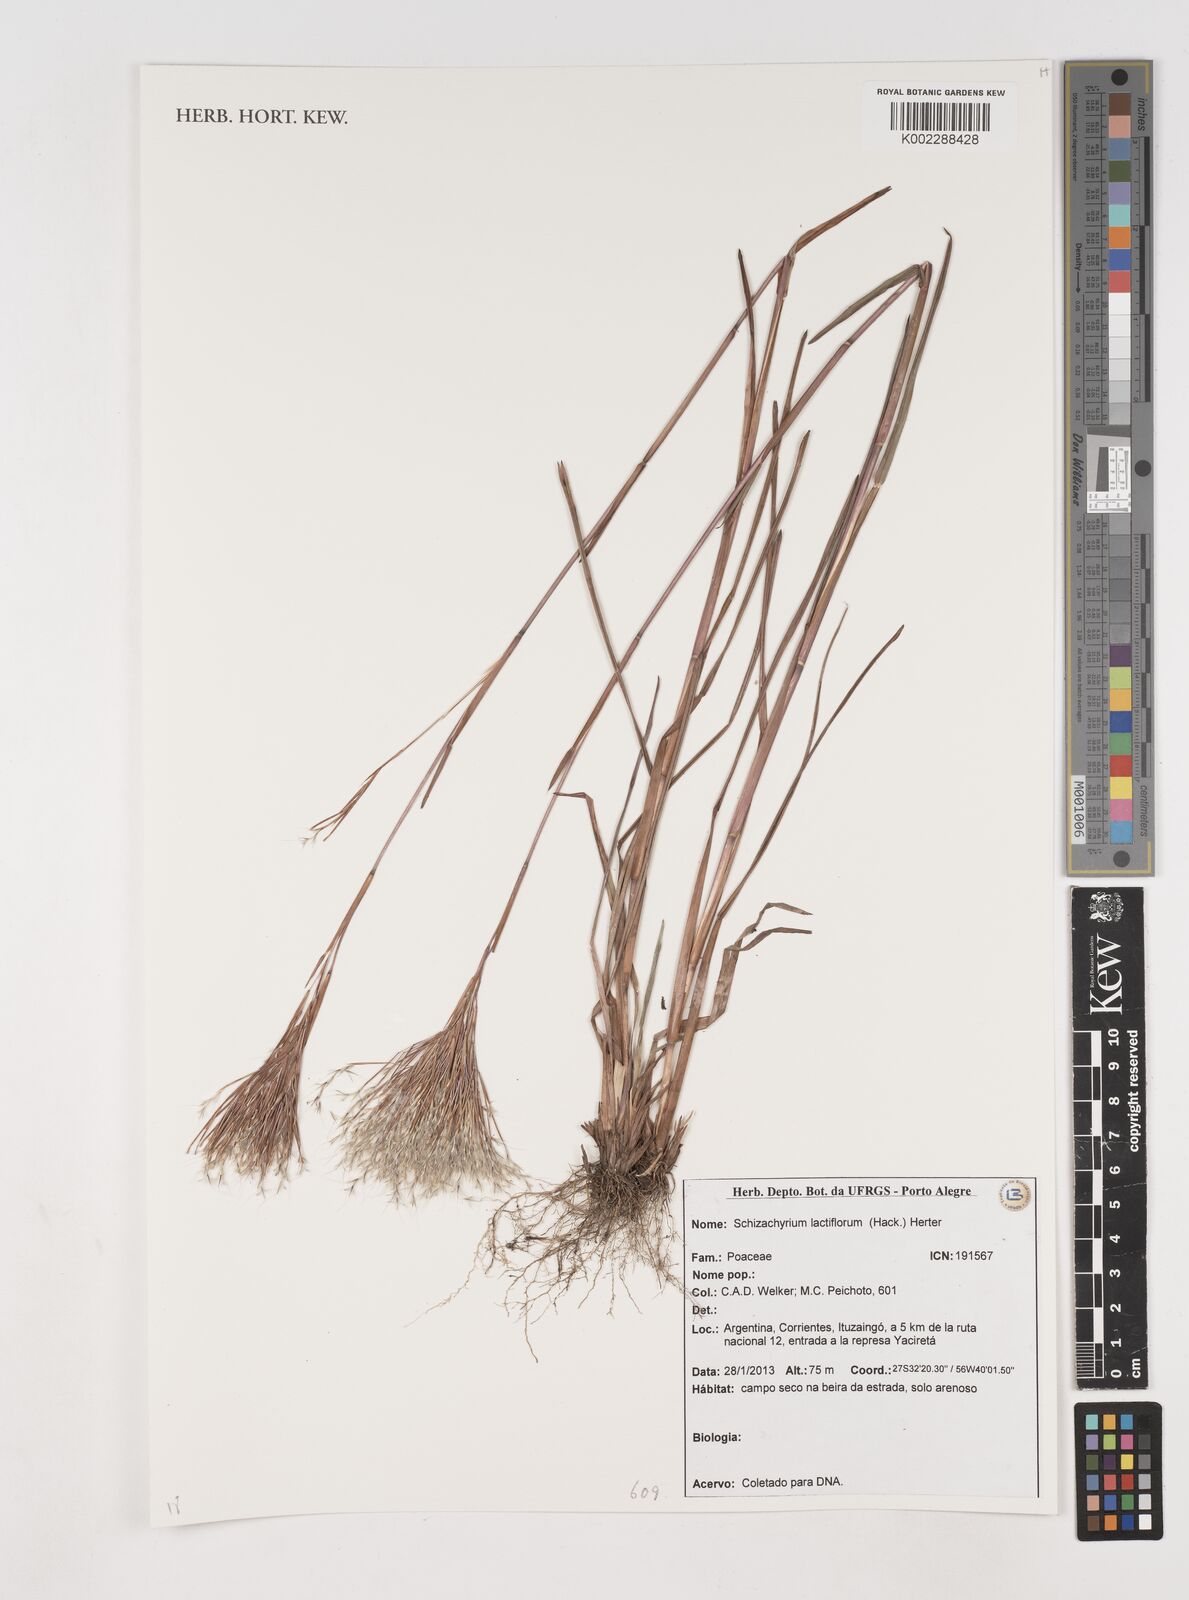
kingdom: Plantae
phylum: Tracheophyta
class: Liliopsida
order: Poales
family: Poaceae
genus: Schizachyrium
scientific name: Schizachyrium condensatum
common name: Bush beardgrass
